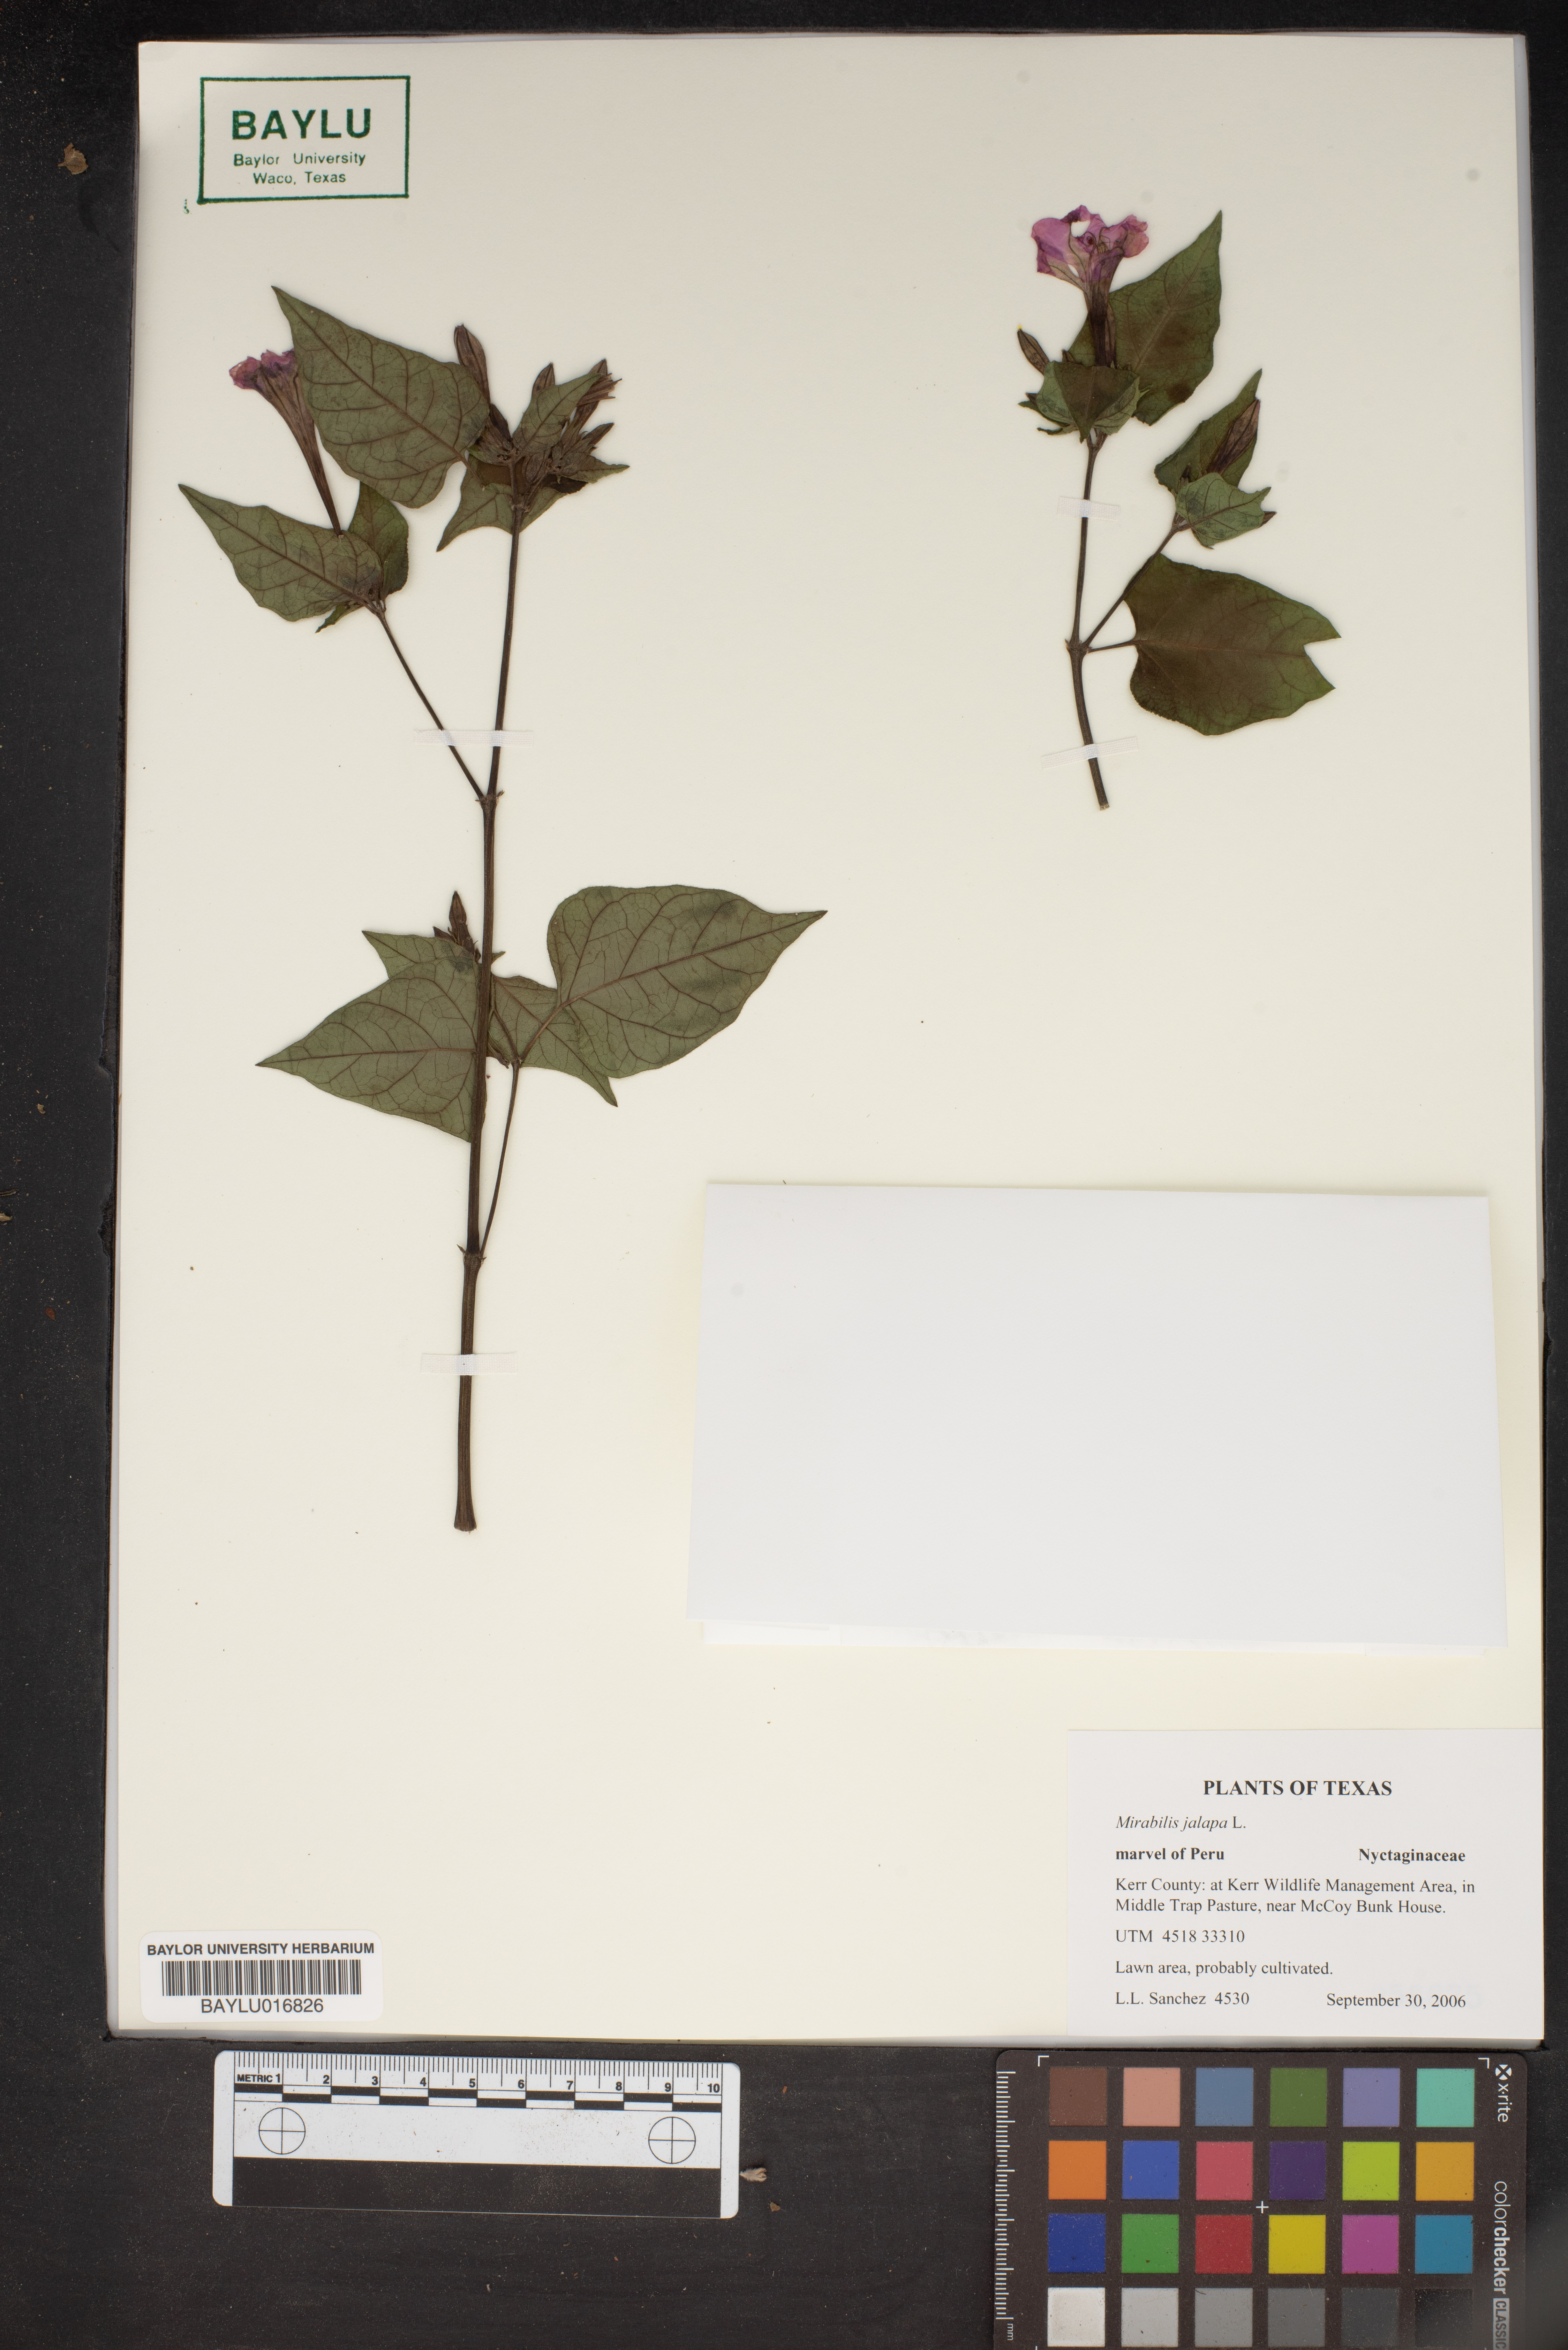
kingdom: Plantae
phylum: Tracheophyta
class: Magnoliopsida
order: Caryophyllales
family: Nyctaginaceae
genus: Mirabilis
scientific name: Mirabilis jalapa
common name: Marvel-of-peru
